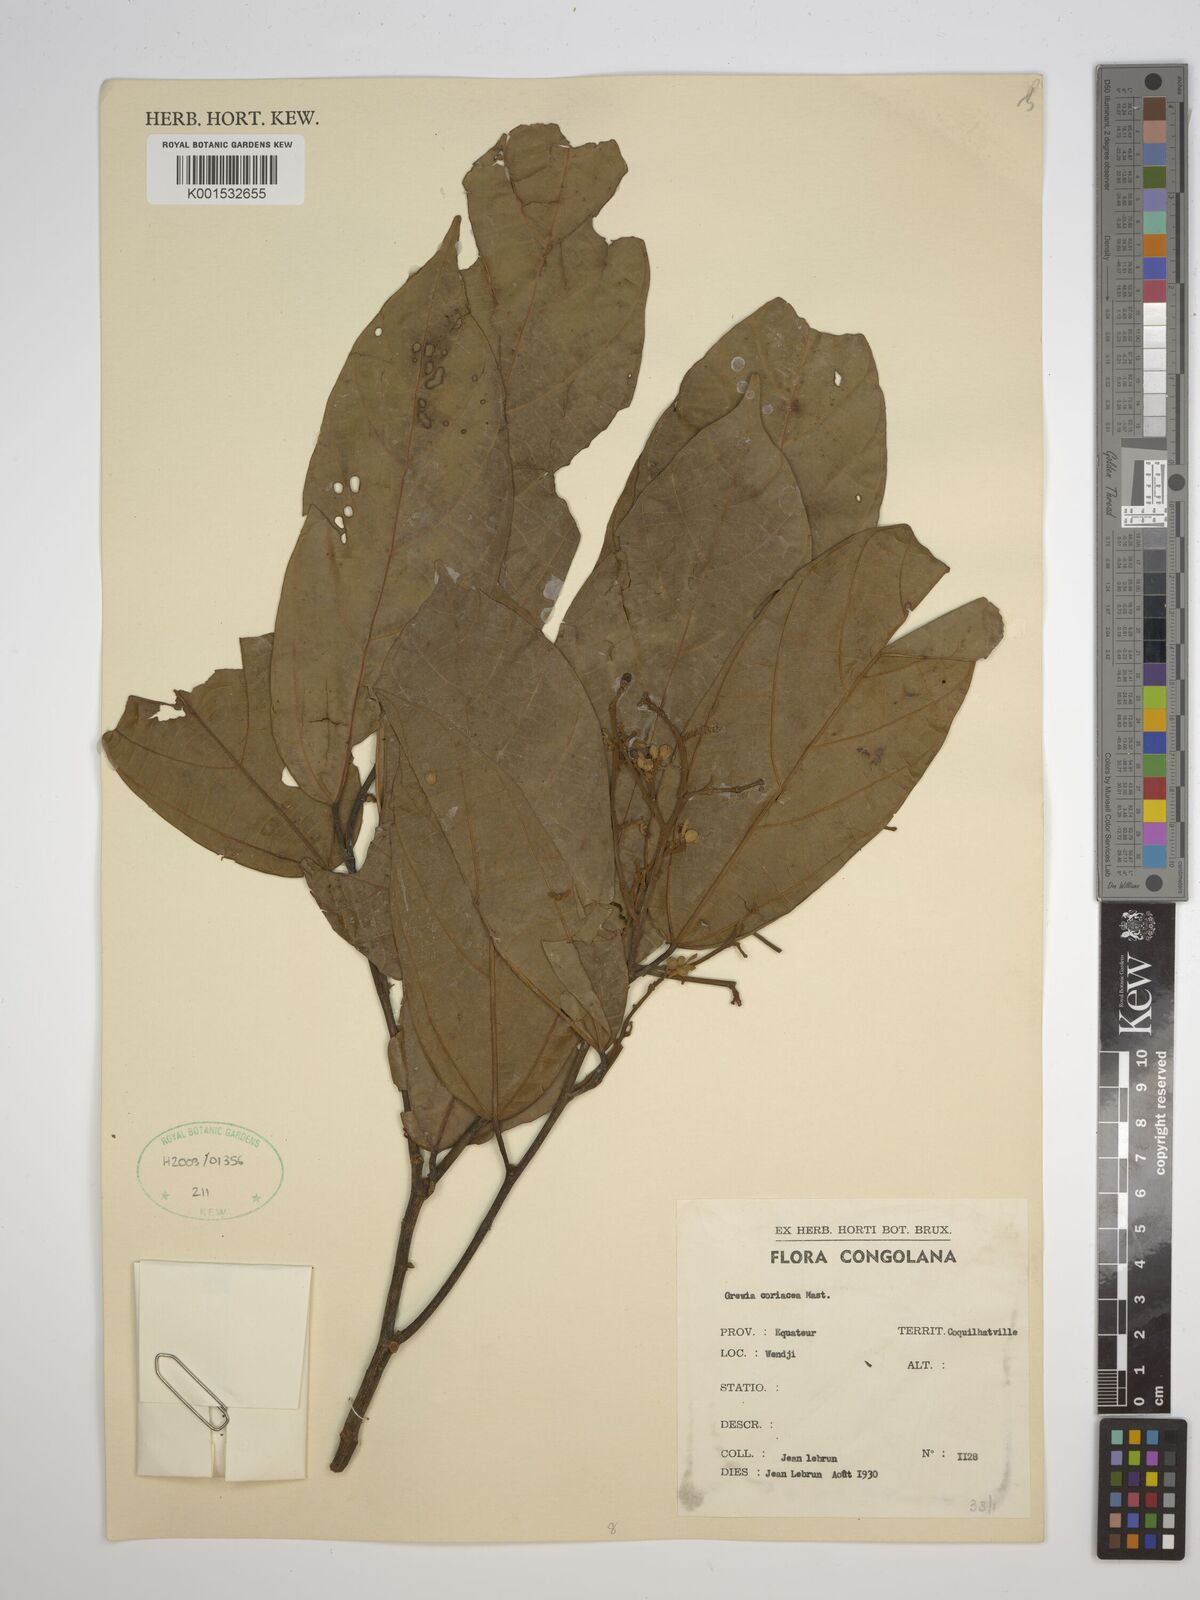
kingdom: Plantae
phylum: Tracheophyta
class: Magnoliopsida
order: Malvales
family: Malvaceae
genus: Microcos
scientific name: Microcos coriacea
